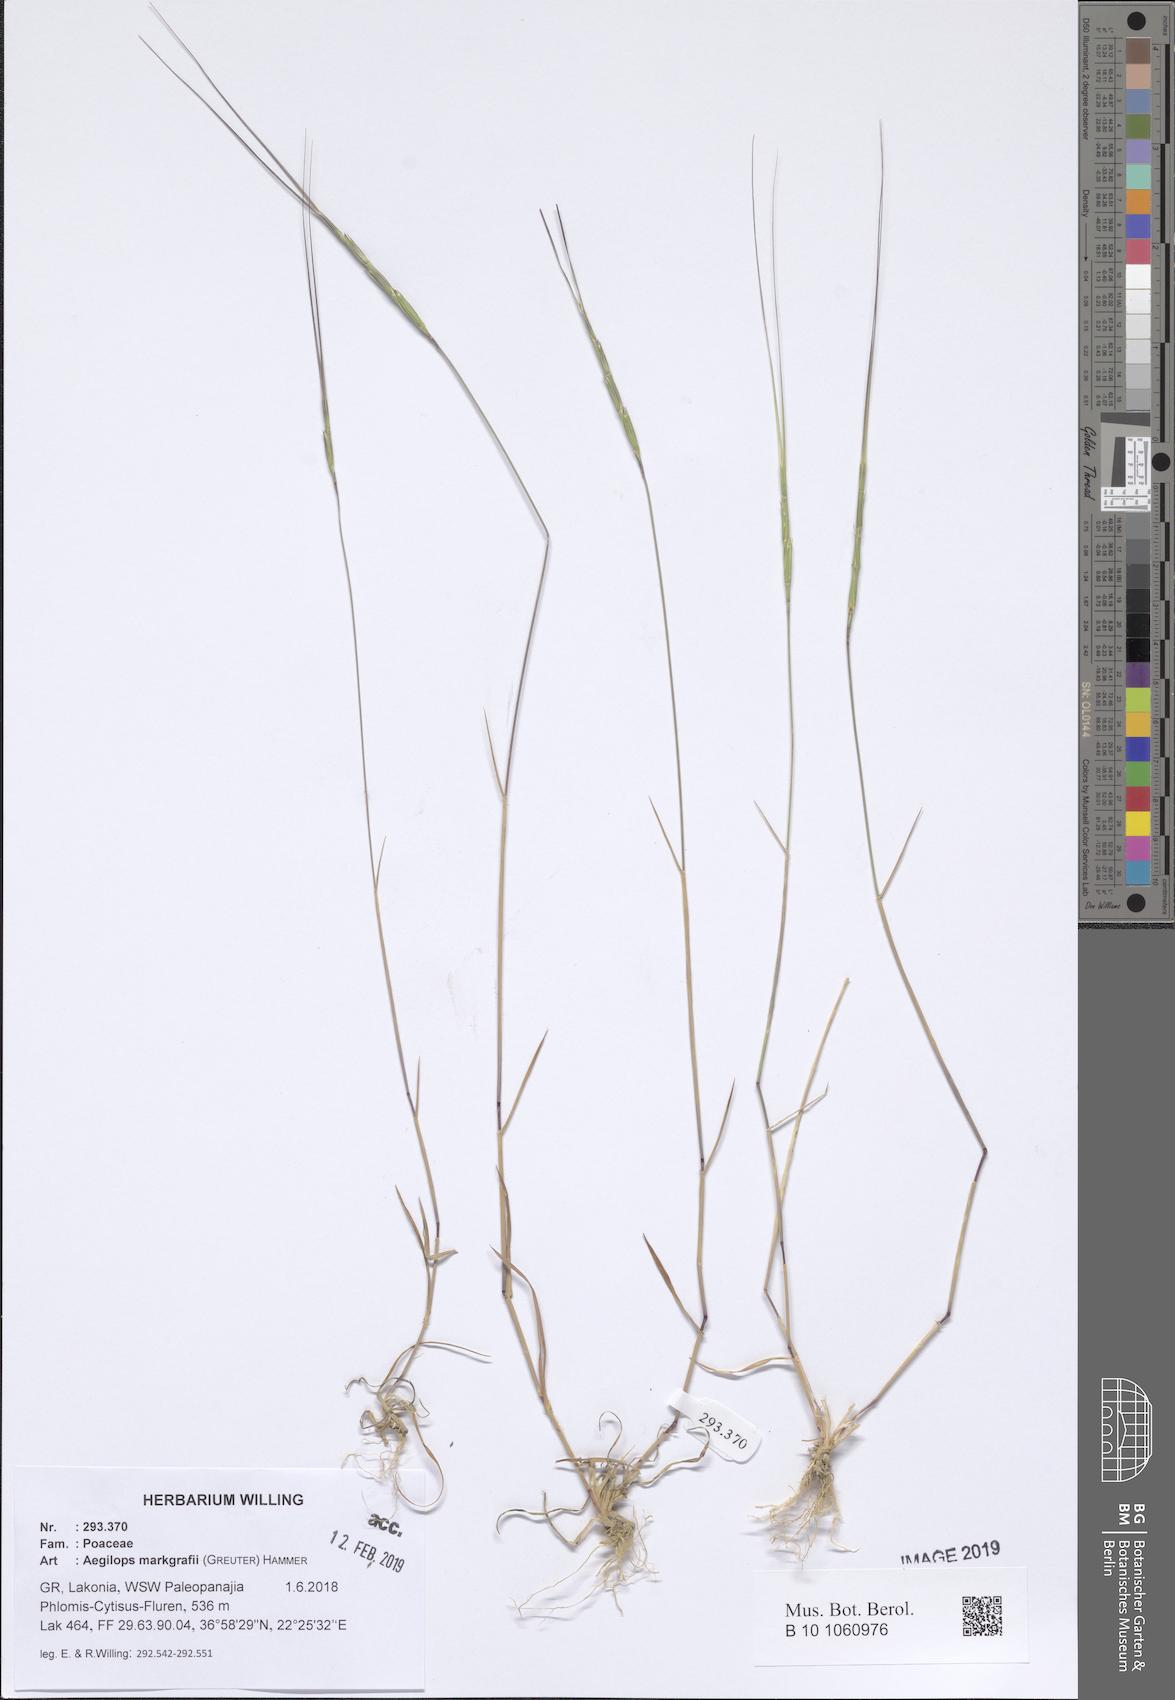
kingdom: Plantae
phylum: Tracheophyta
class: Liliopsida
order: Poales
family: Poaceae
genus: Aegilops
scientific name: Aegilops caudata
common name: Cretan hard-grass
